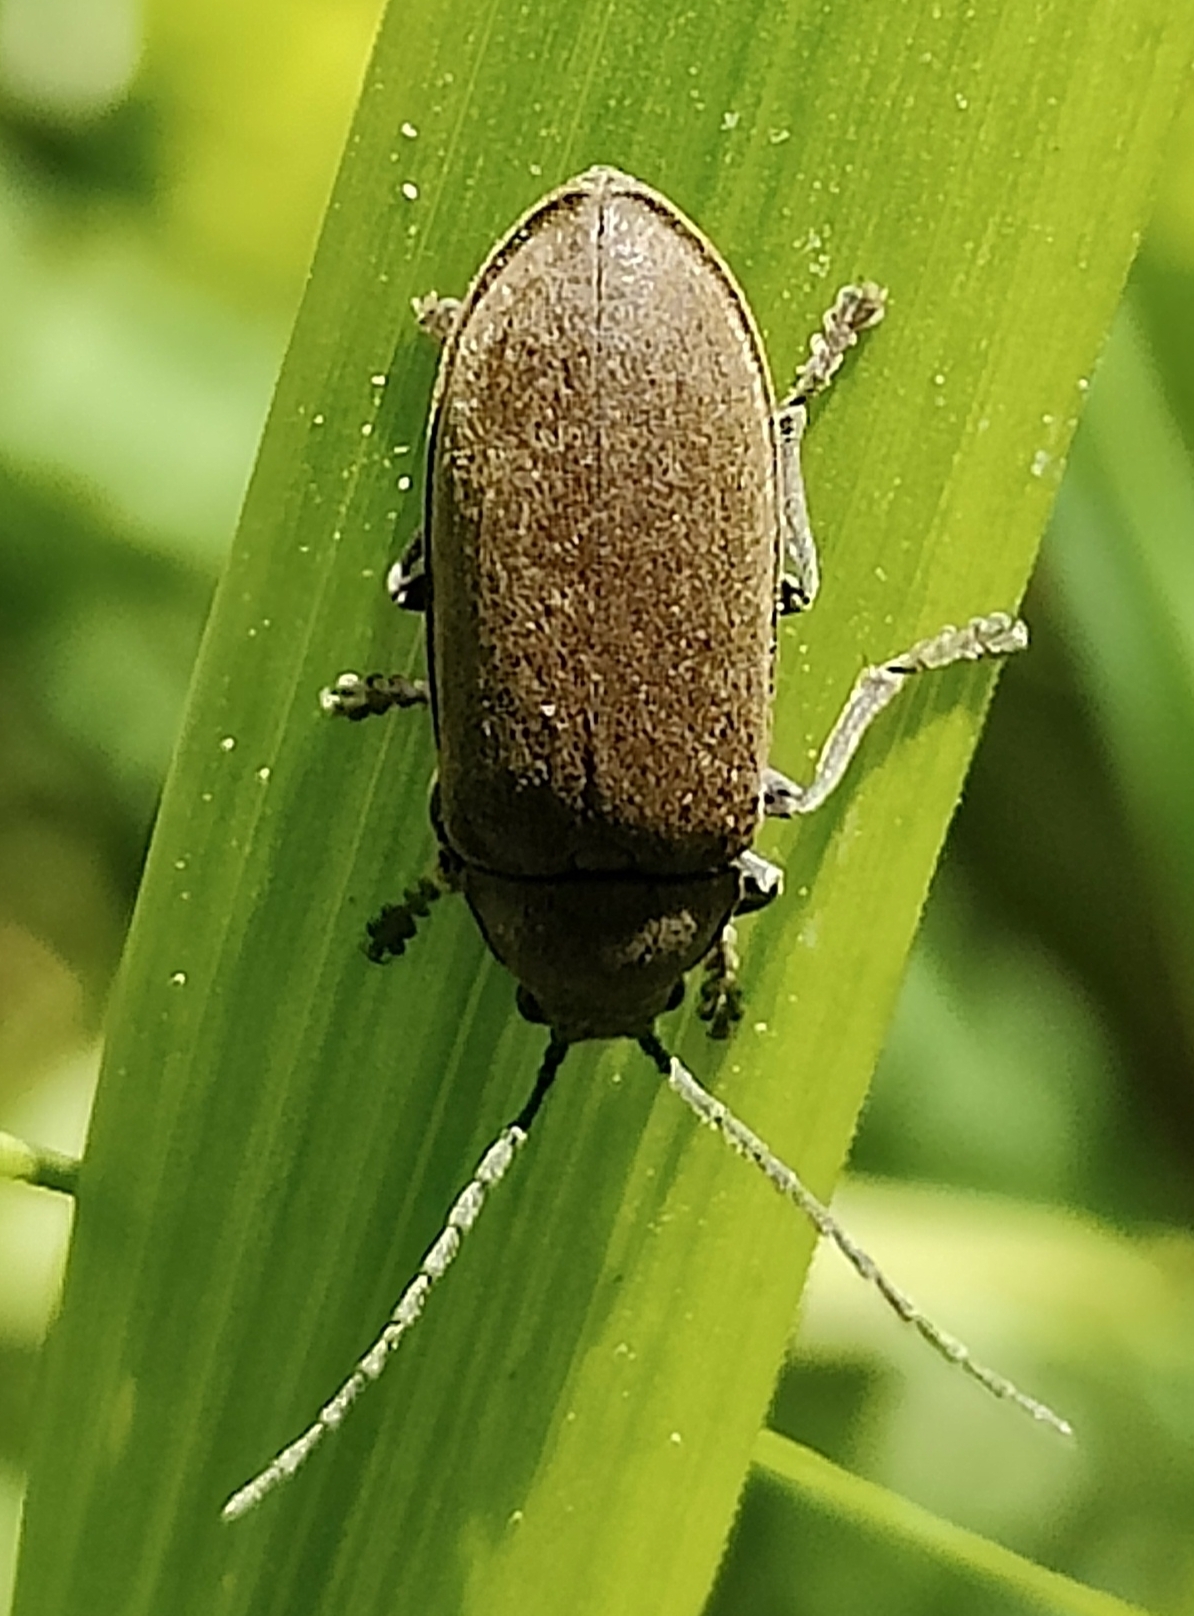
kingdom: Animalia
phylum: Arthropoda
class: Insecta
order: Coleoptera
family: Dascillidae
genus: Dascillus
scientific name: Dascillus cervinus
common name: Moseblødbille
